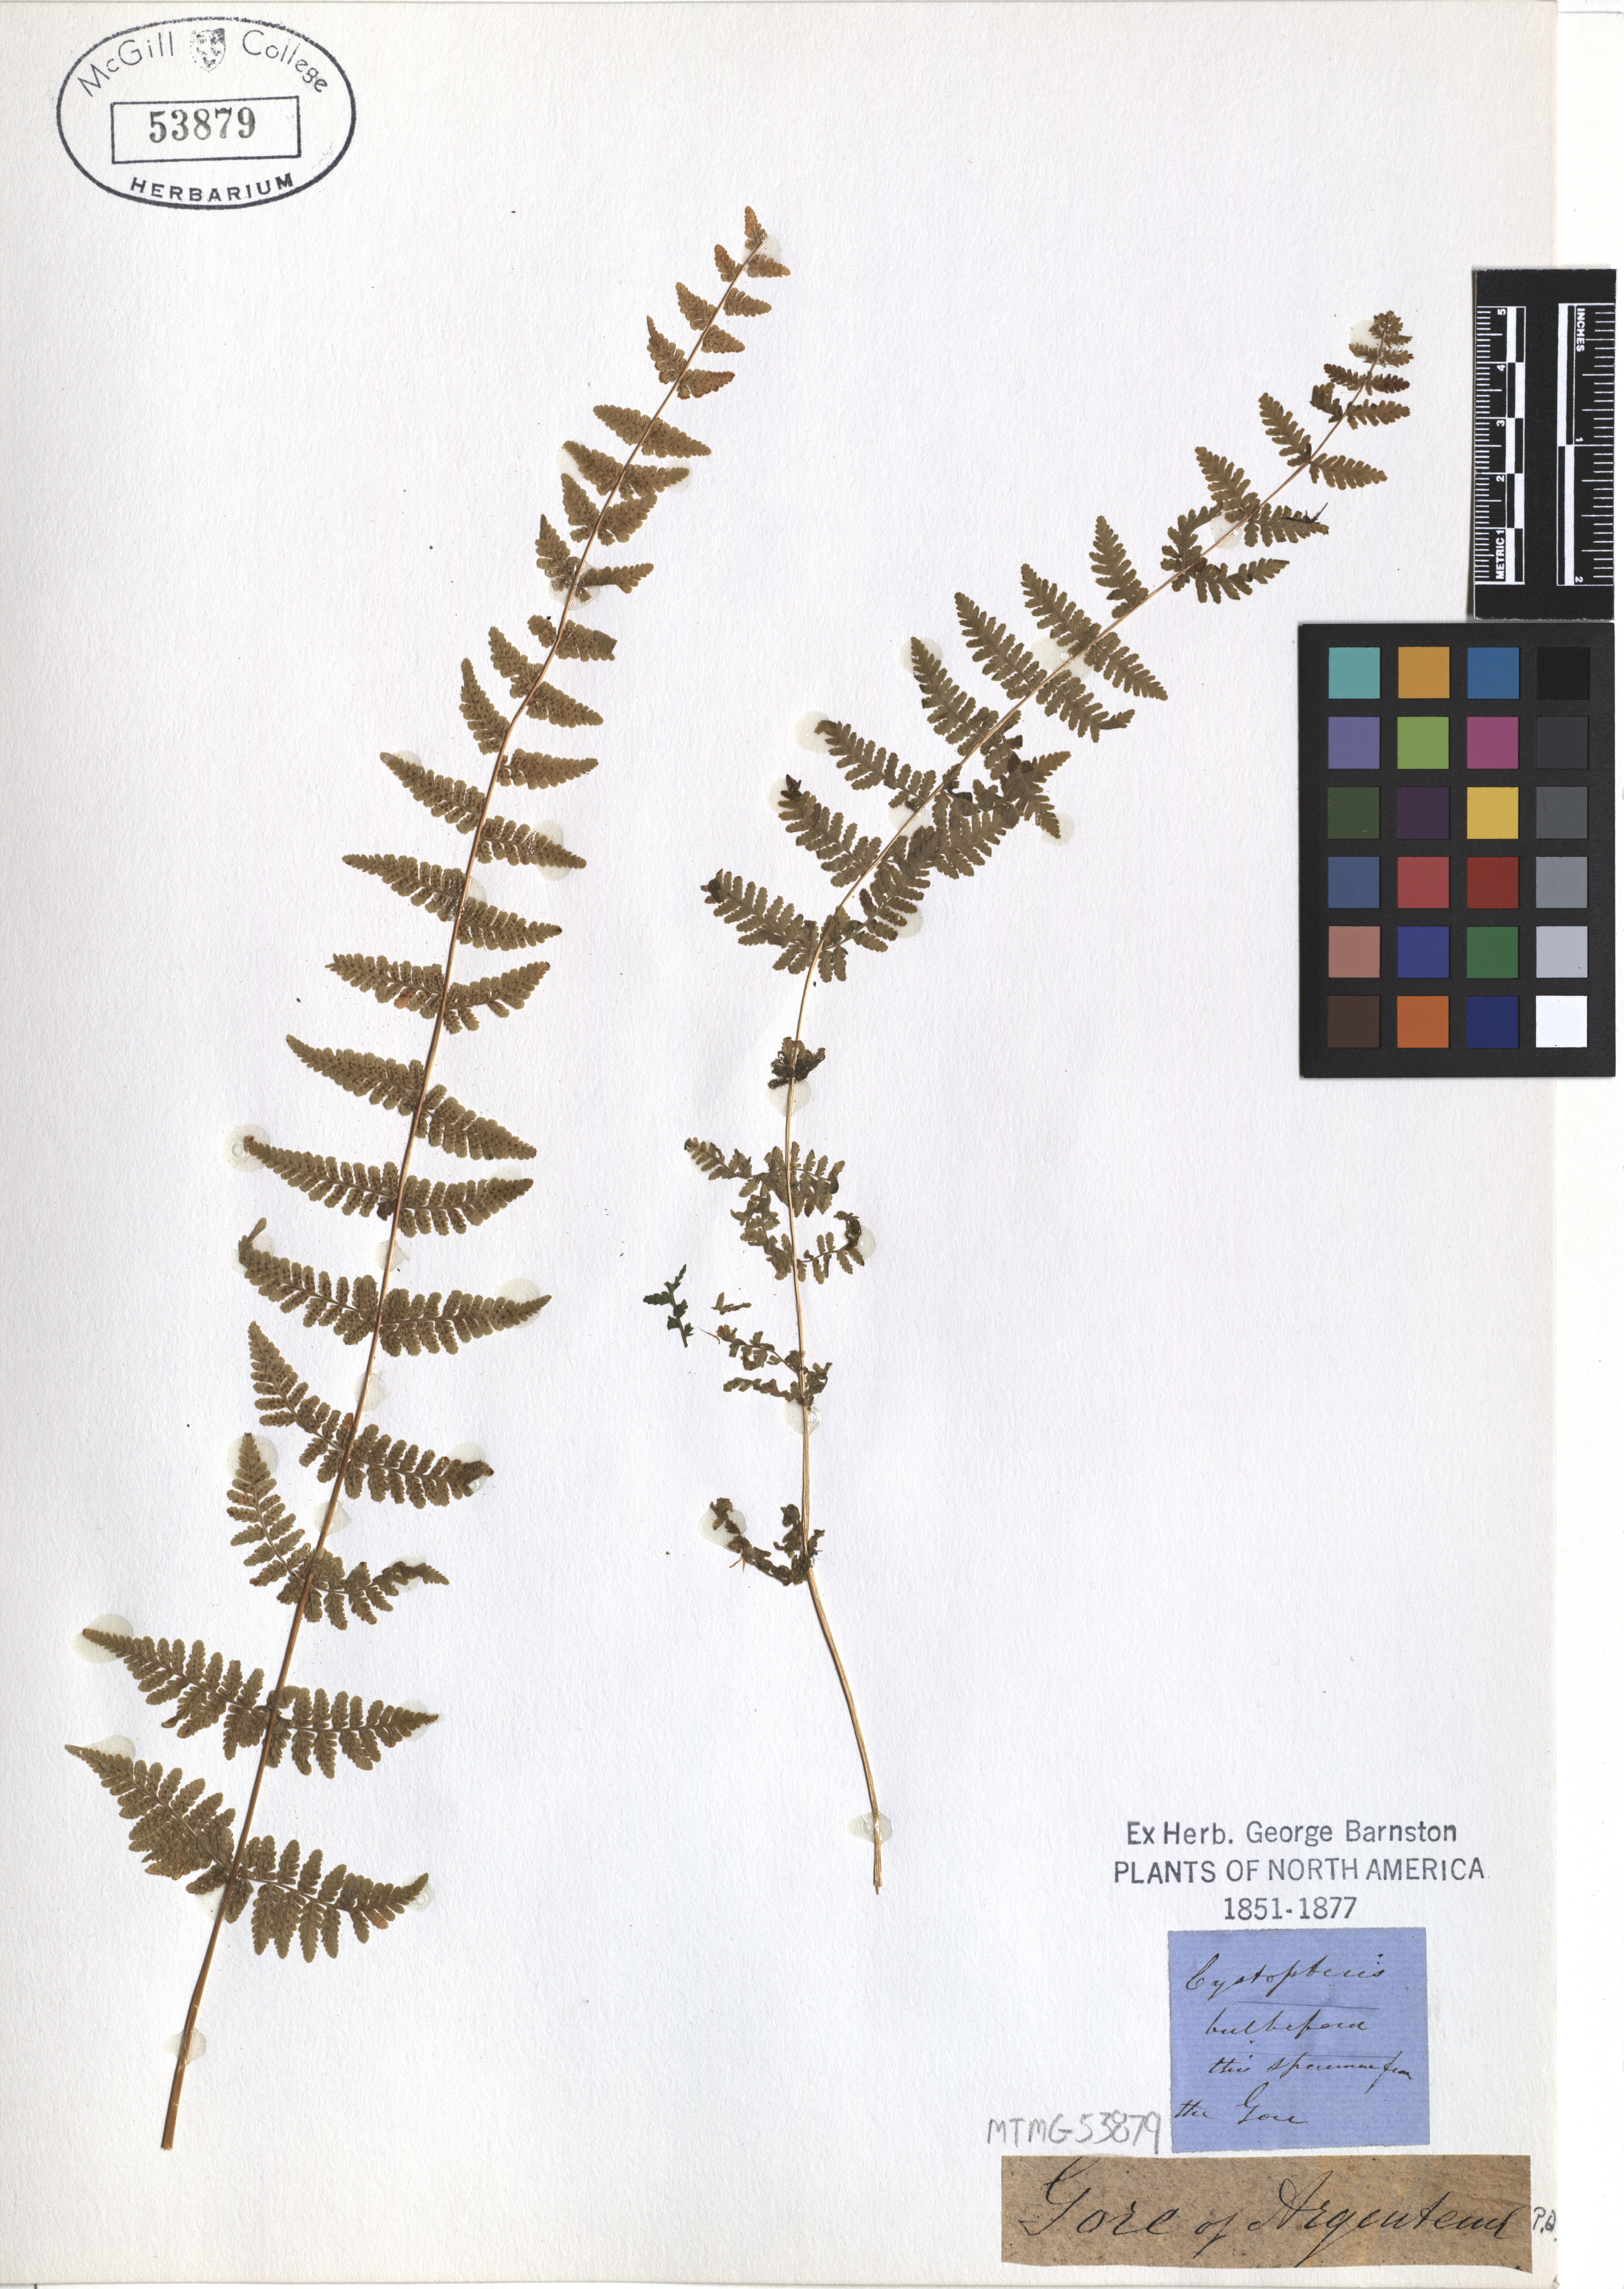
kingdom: Plantae
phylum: Tracheophyta
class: Polypodiopsida
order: Polypodiales
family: Cystopteridaceae
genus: Cystopteris
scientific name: Cystopteris bulbifera
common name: Bulblet bladder fern
